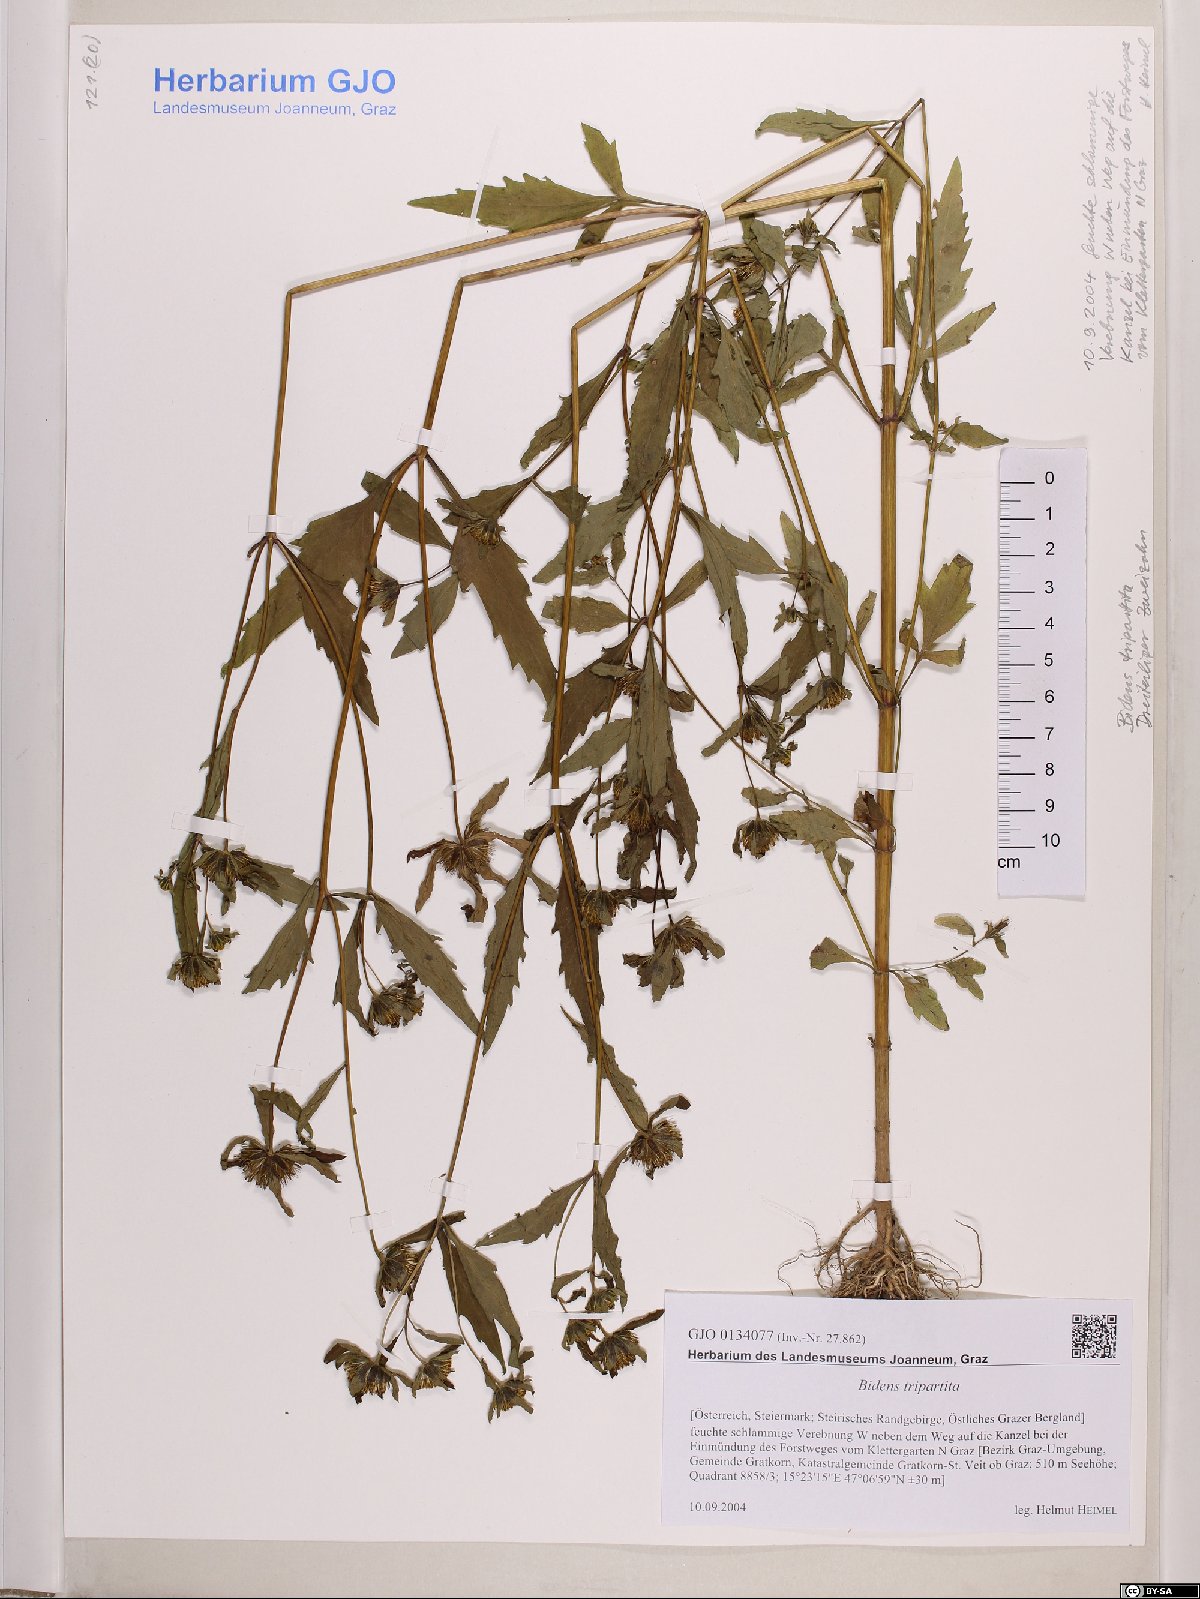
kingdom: Plantae
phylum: Tracheophyta
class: Magnoliopsida
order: Asterales
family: Asteraceae
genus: Bidens
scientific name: Bidens tripartita
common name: Trifid bur-marigold
